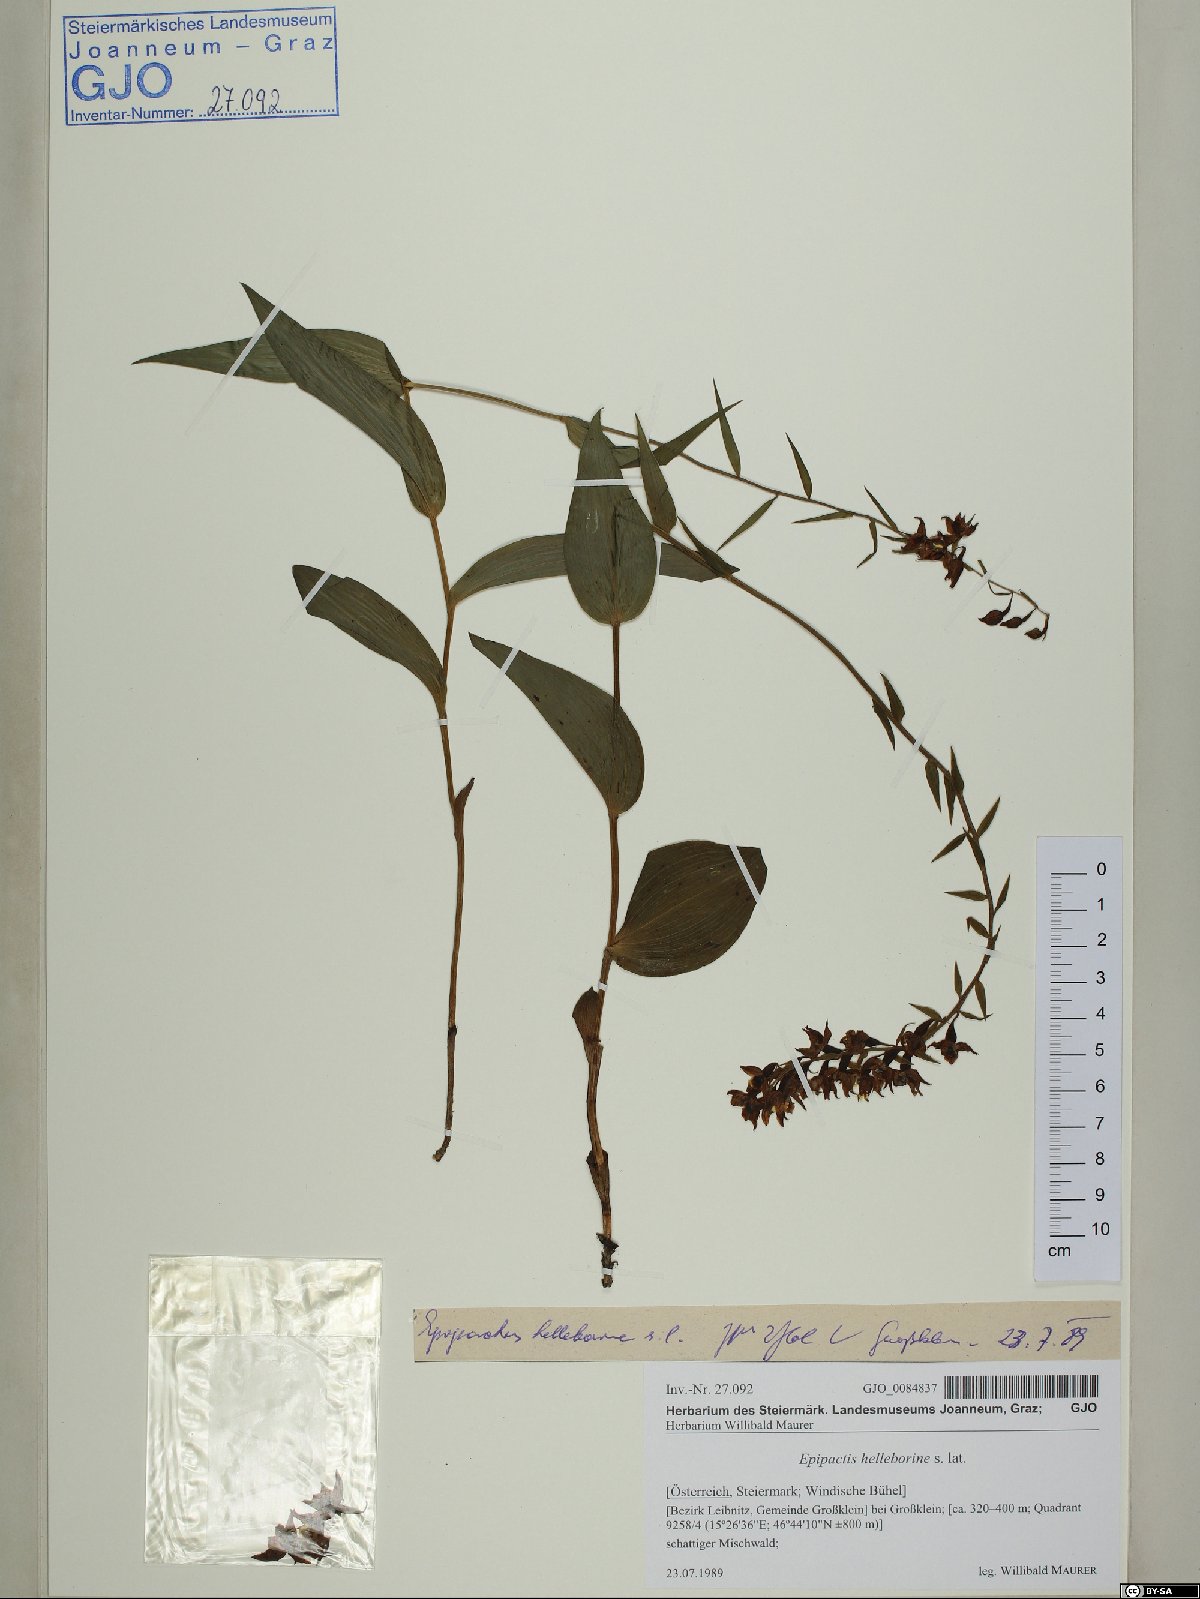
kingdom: Plantae
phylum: Tracheophyta
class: Liliopsida
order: Asparagales
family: Orchidaceae
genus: Epipactis
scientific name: Epipactis helleborine
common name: Broad-leaved helleborine
